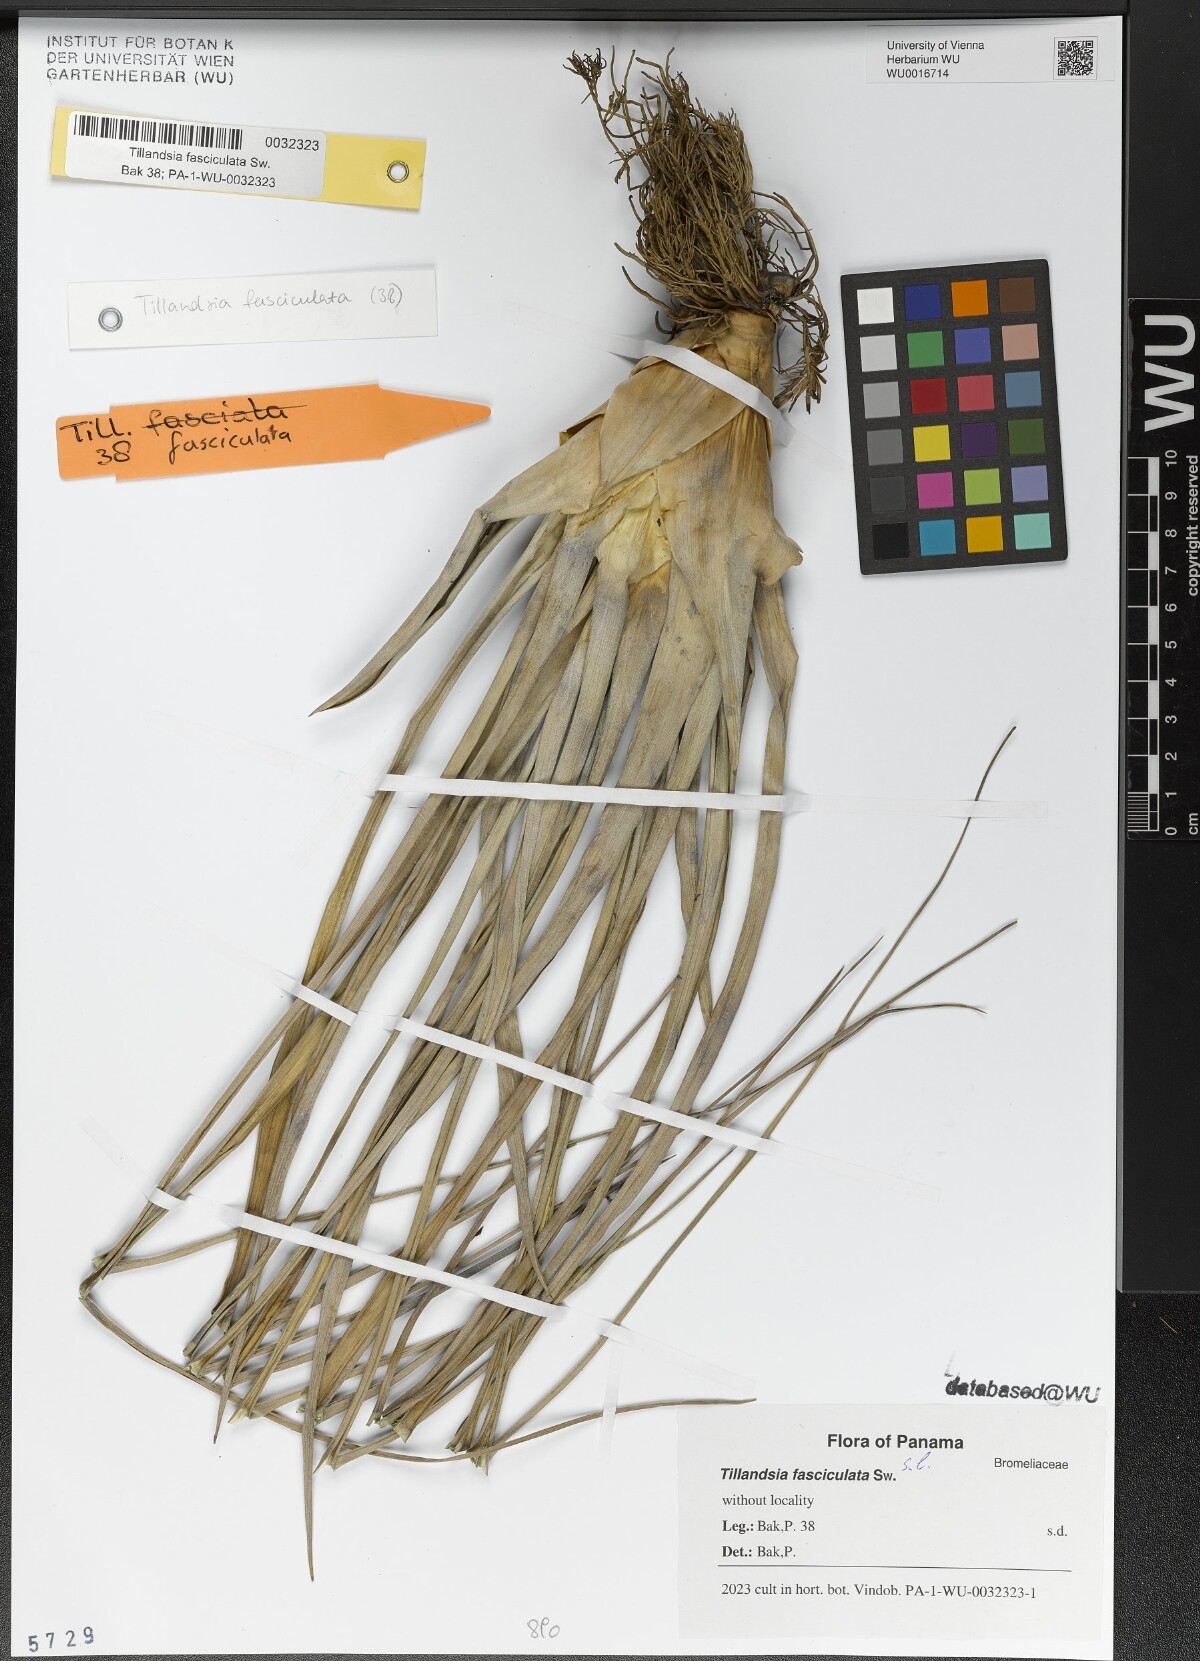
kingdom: Plantae
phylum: Tracheophyta
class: Liliopsida
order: Poales
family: Bromeliaceae
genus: Tillandsia
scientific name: Tillandsia fasciculata
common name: Giant airplant
